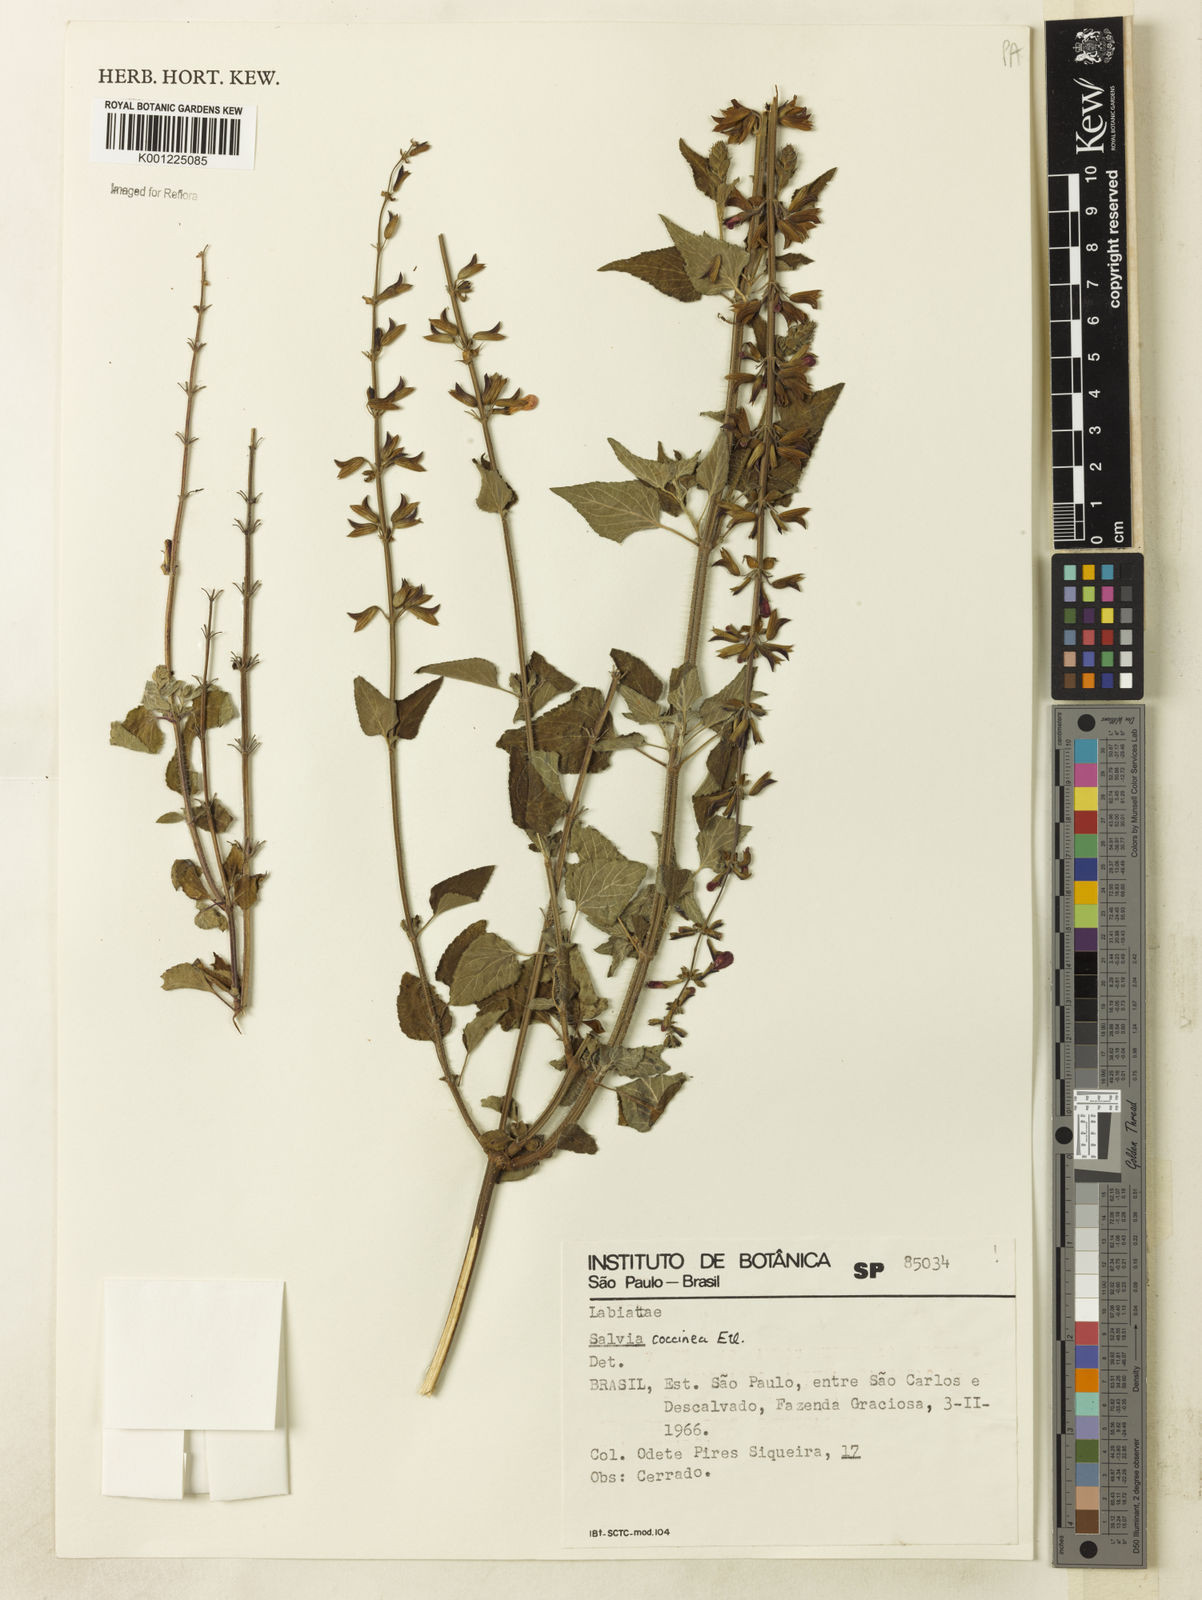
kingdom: Plantae
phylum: Tracheophyta
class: Magnoliopsida
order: Lamiales
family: Lamiaceae
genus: Salvia
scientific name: Salvia coccinea
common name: Blood sage
